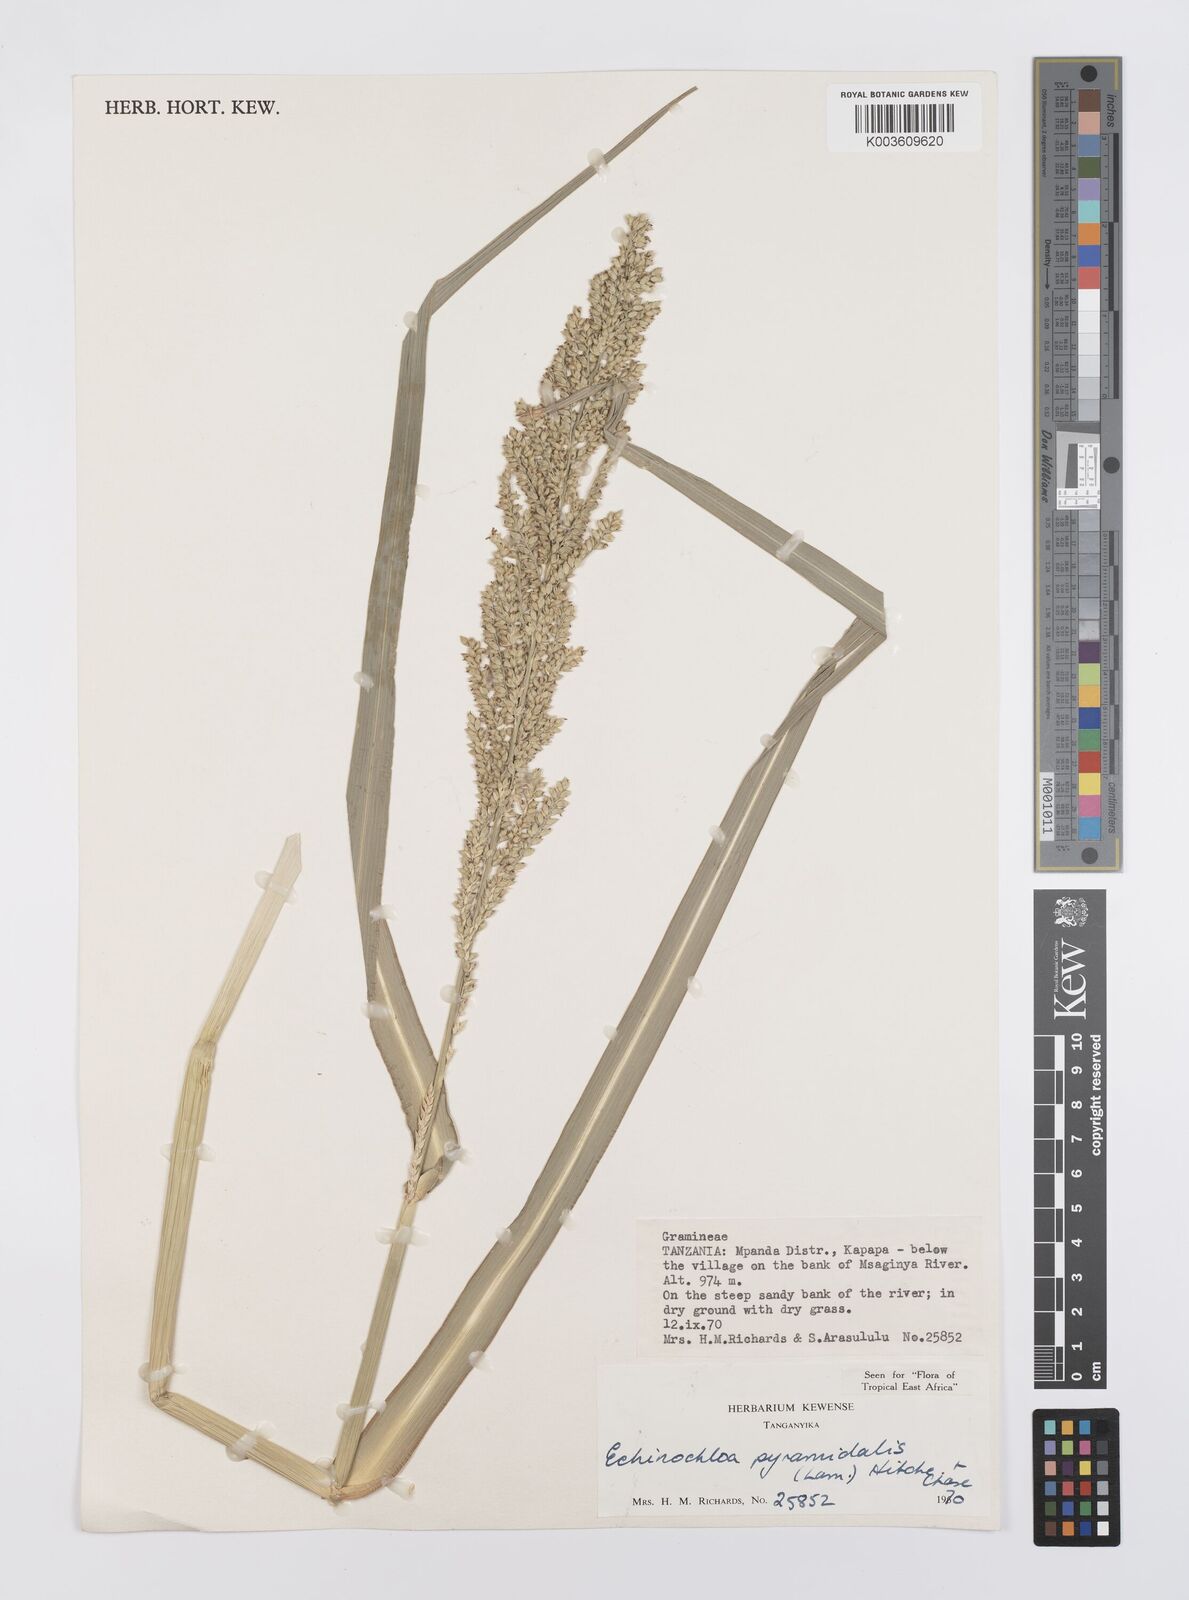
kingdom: Plantae
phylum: Tracheophyta
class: Liliopsida
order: Poales
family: Poaceae
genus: Echinochloa
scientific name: Echinochloa pyramidalis
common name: Antelope grass
